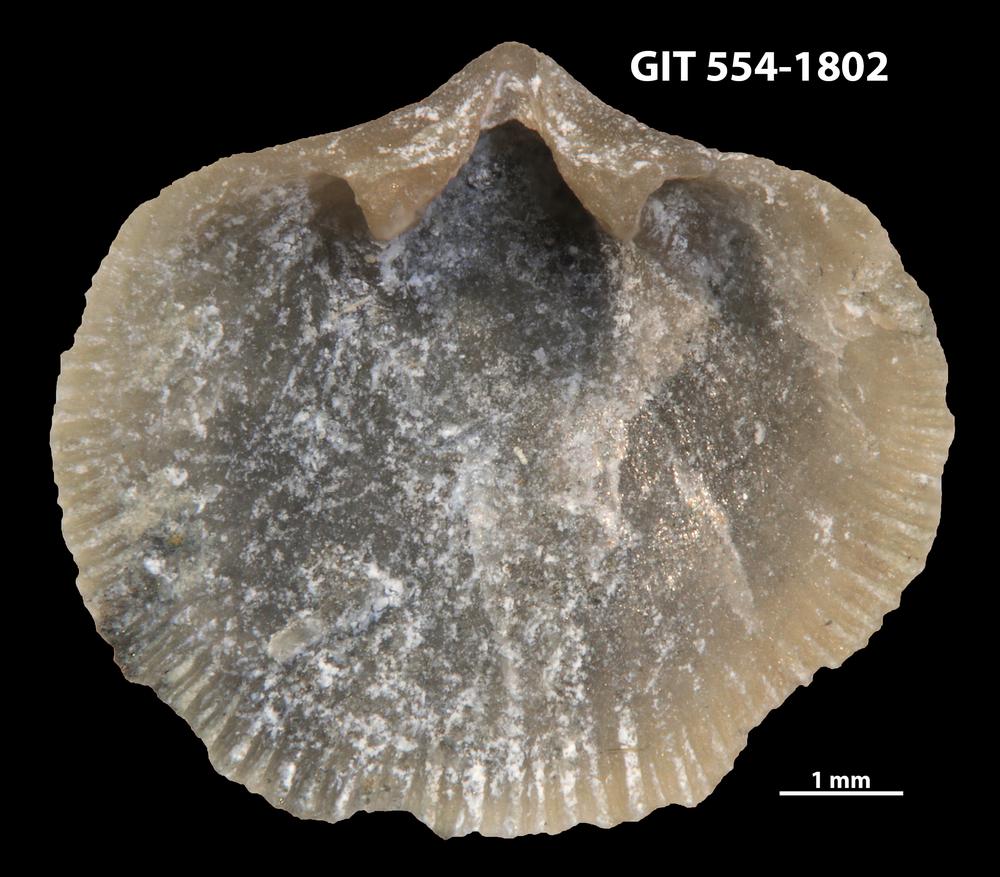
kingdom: Animalia
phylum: Brachiopoda
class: Rhynchonellata
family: Dalmanellidae
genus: Onniella
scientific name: Onniella trigona
